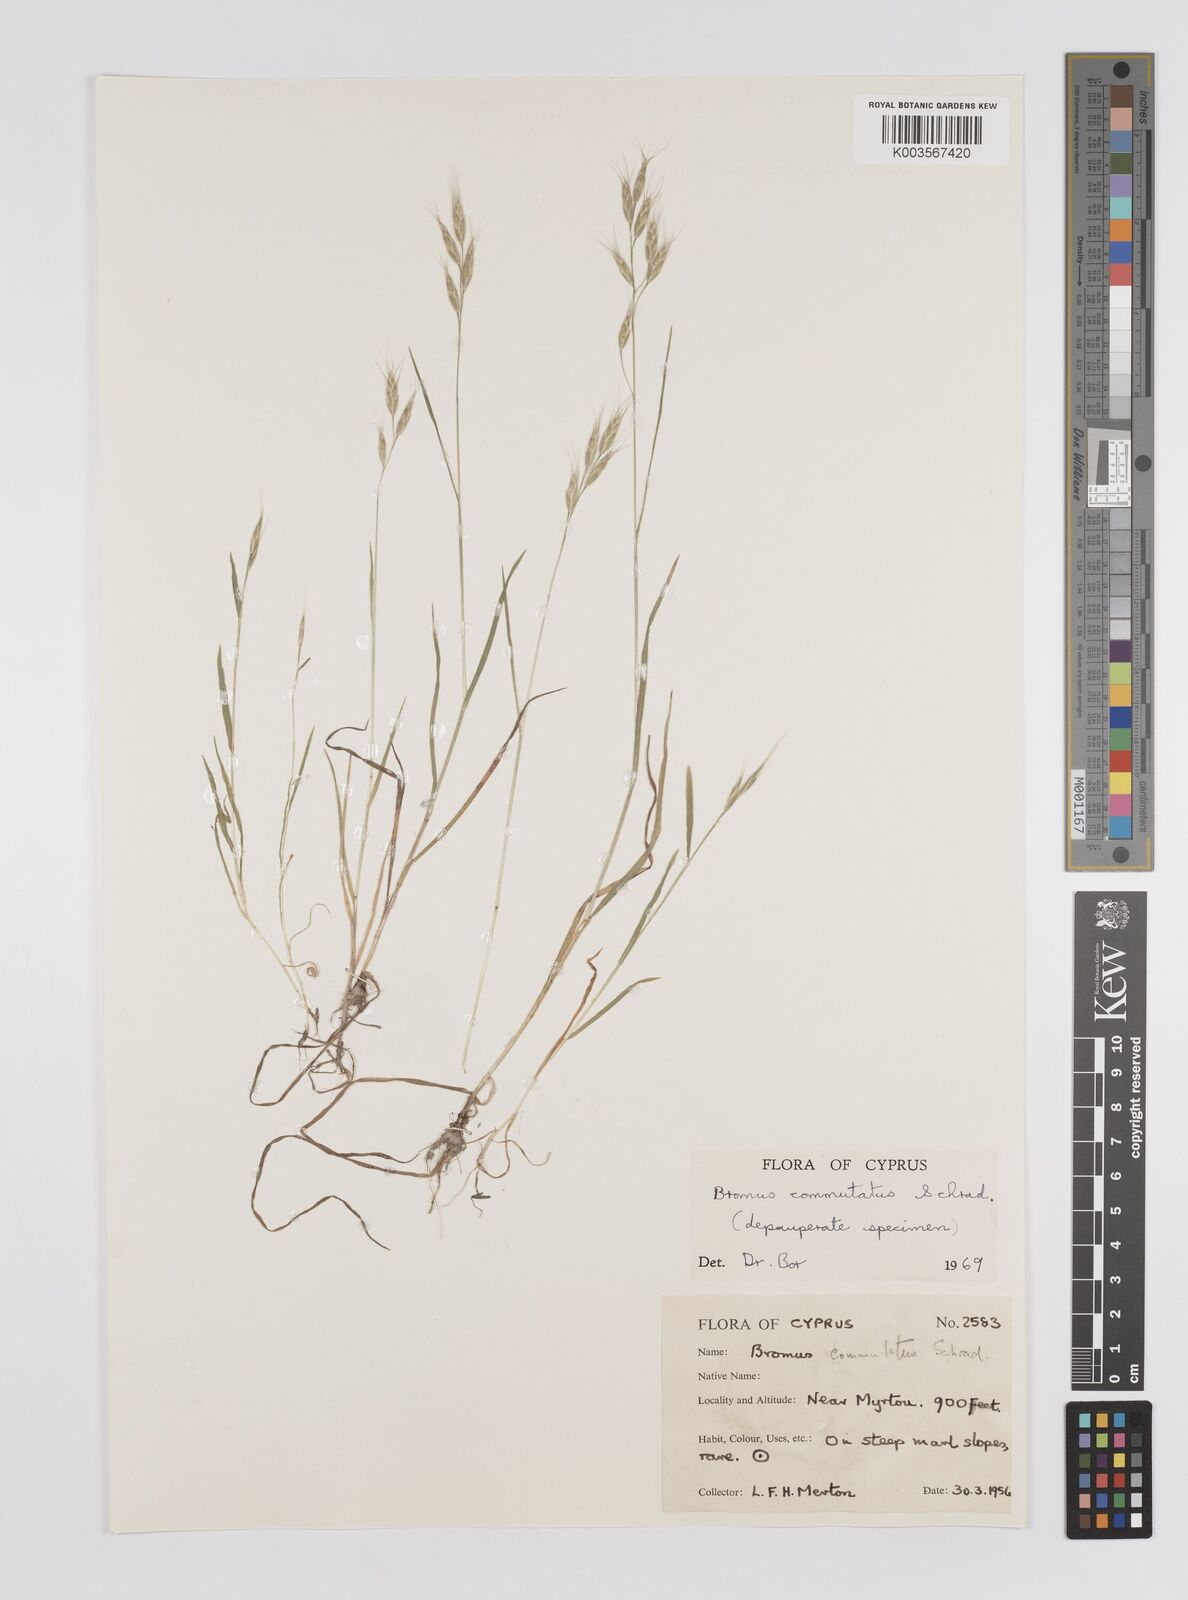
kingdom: Plantae
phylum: Tracheophyta
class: Liliopsida
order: Poales
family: Poaceae
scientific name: Poaceae
